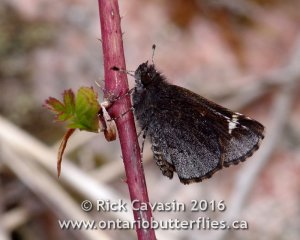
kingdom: Animalia
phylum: Arthropoda
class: Insecta
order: Lepidoptera
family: Hesperiidae
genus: Mastor
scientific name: Mastor vialis
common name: Common Roadside-Skipper
